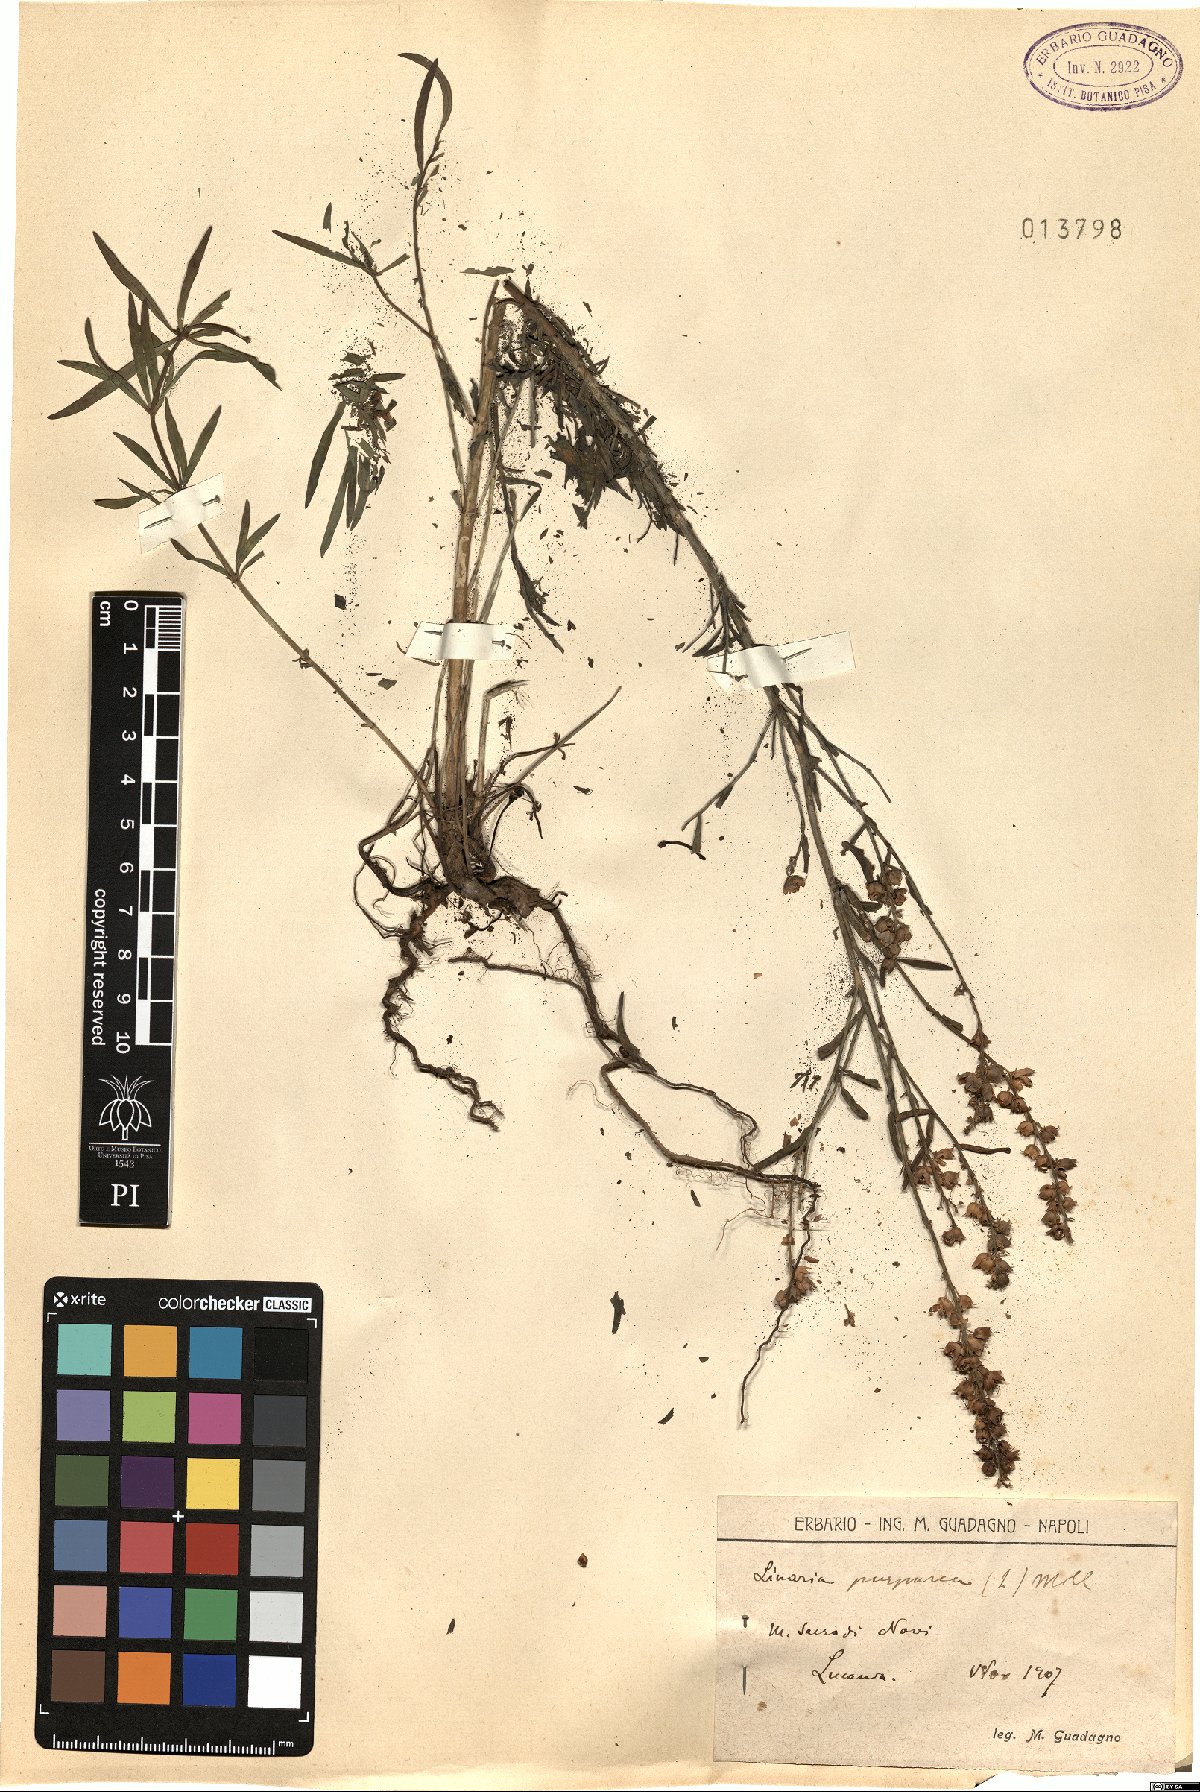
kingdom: Plantae
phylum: Tracheophyta
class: Magnoliopsida
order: Lamiales
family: Plantaginaceae
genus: Linaria
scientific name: Linaria purpurea
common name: Purple toadflax
